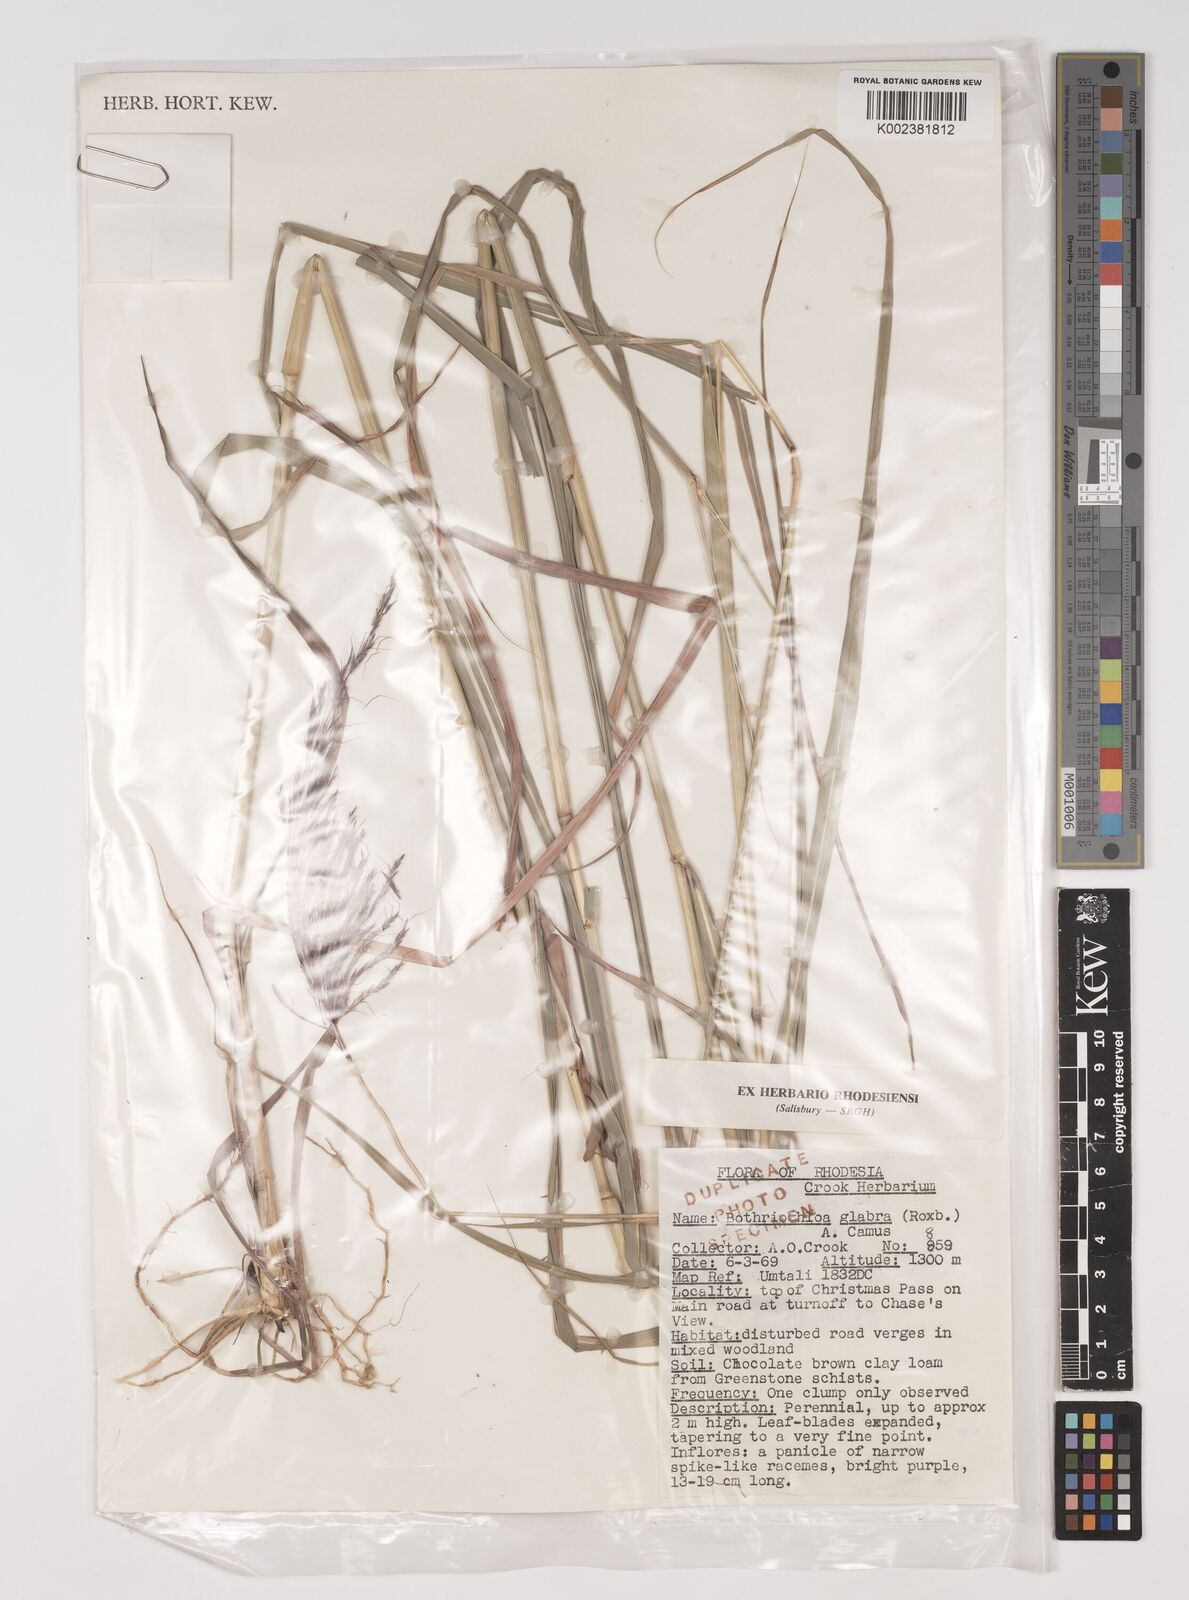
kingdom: Plantae
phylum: Tracheophyta
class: Liliopsida
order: Poales
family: Poaceae
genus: Bothriochloa
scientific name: Bothriochloa bladhii
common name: Caucasian bluestem
